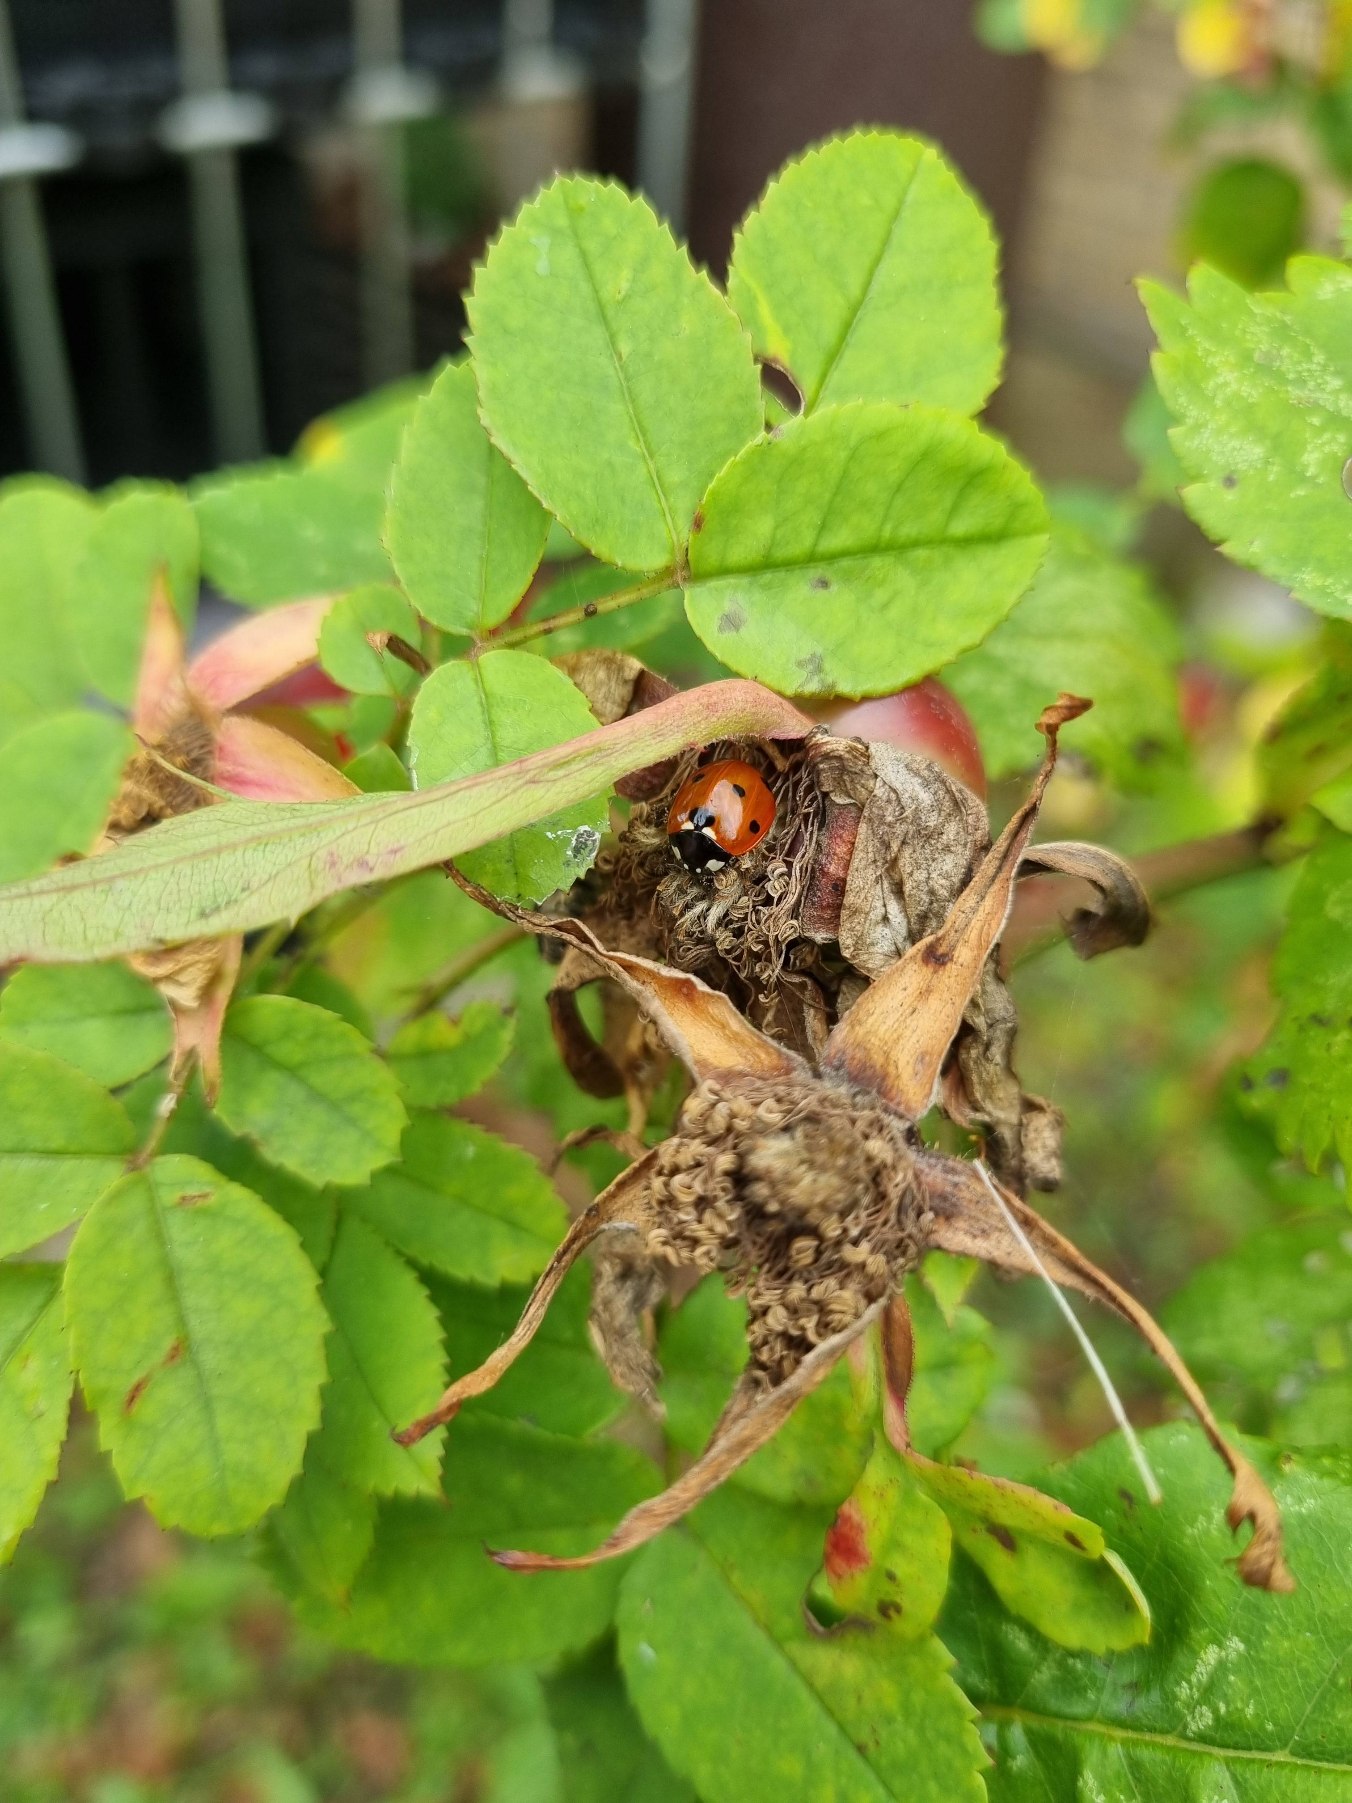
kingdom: Animalia
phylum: Arthropoda
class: Insecta
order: Coleoptera
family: Coccinellidae
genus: Coccinella
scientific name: Coccinella septempunctata
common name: Syvplettet mariehøne
